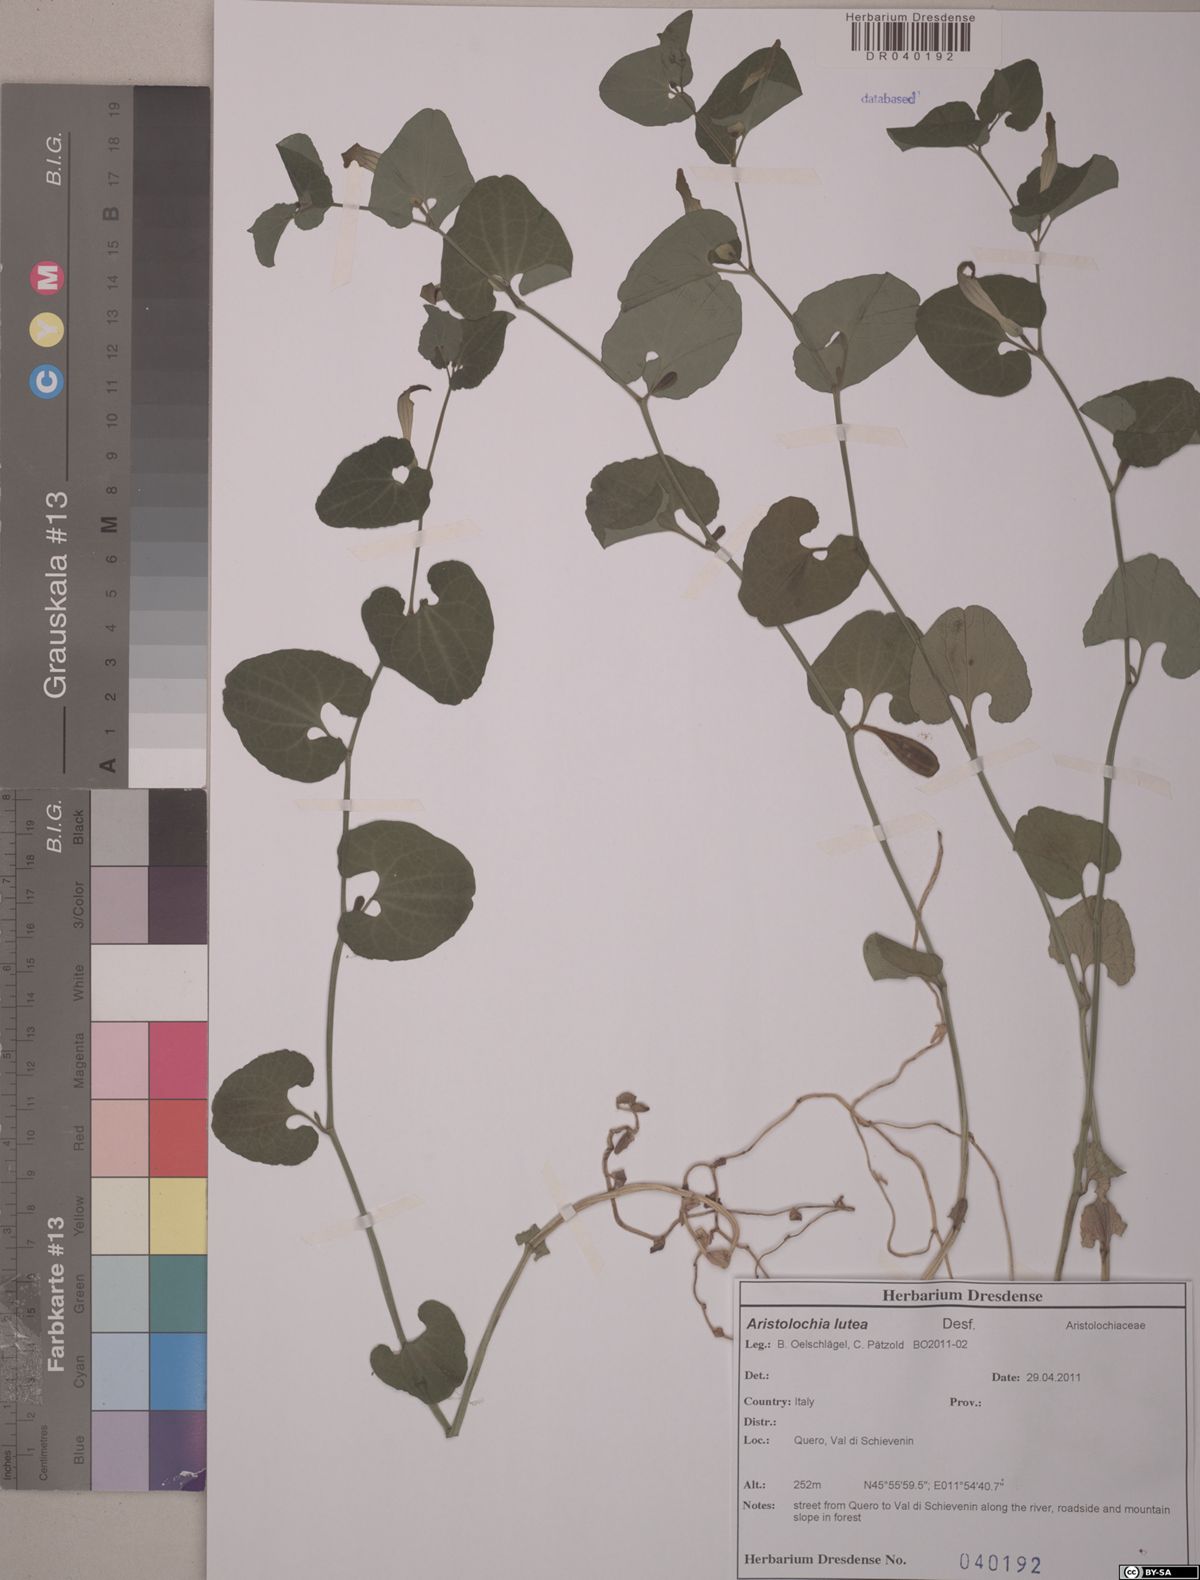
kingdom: Plantae
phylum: Tracheophyta
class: Magnoliopsida
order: Piperales
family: Aristolochiaceae
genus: Aristolochia
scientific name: Aristolochia lutea
